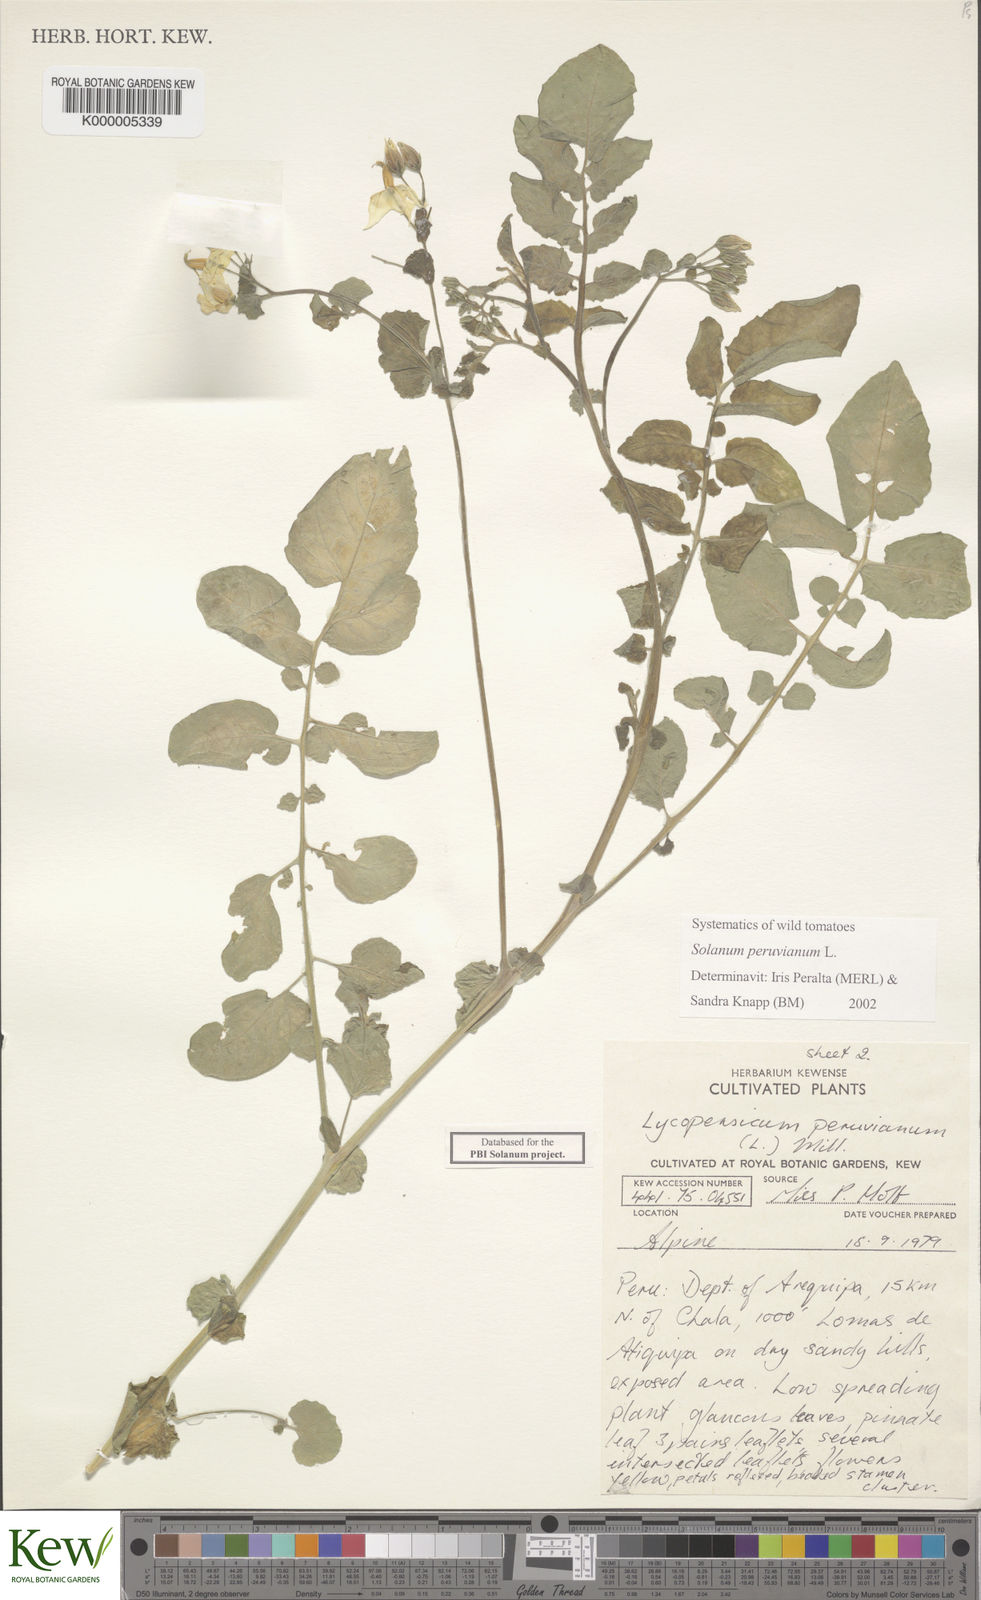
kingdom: Plantae
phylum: Tracheophyta
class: Magnoliopsida
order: Solanales
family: Solanaceae
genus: Solanum
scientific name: Solanum peruvianum
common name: Peruvian nightshade
